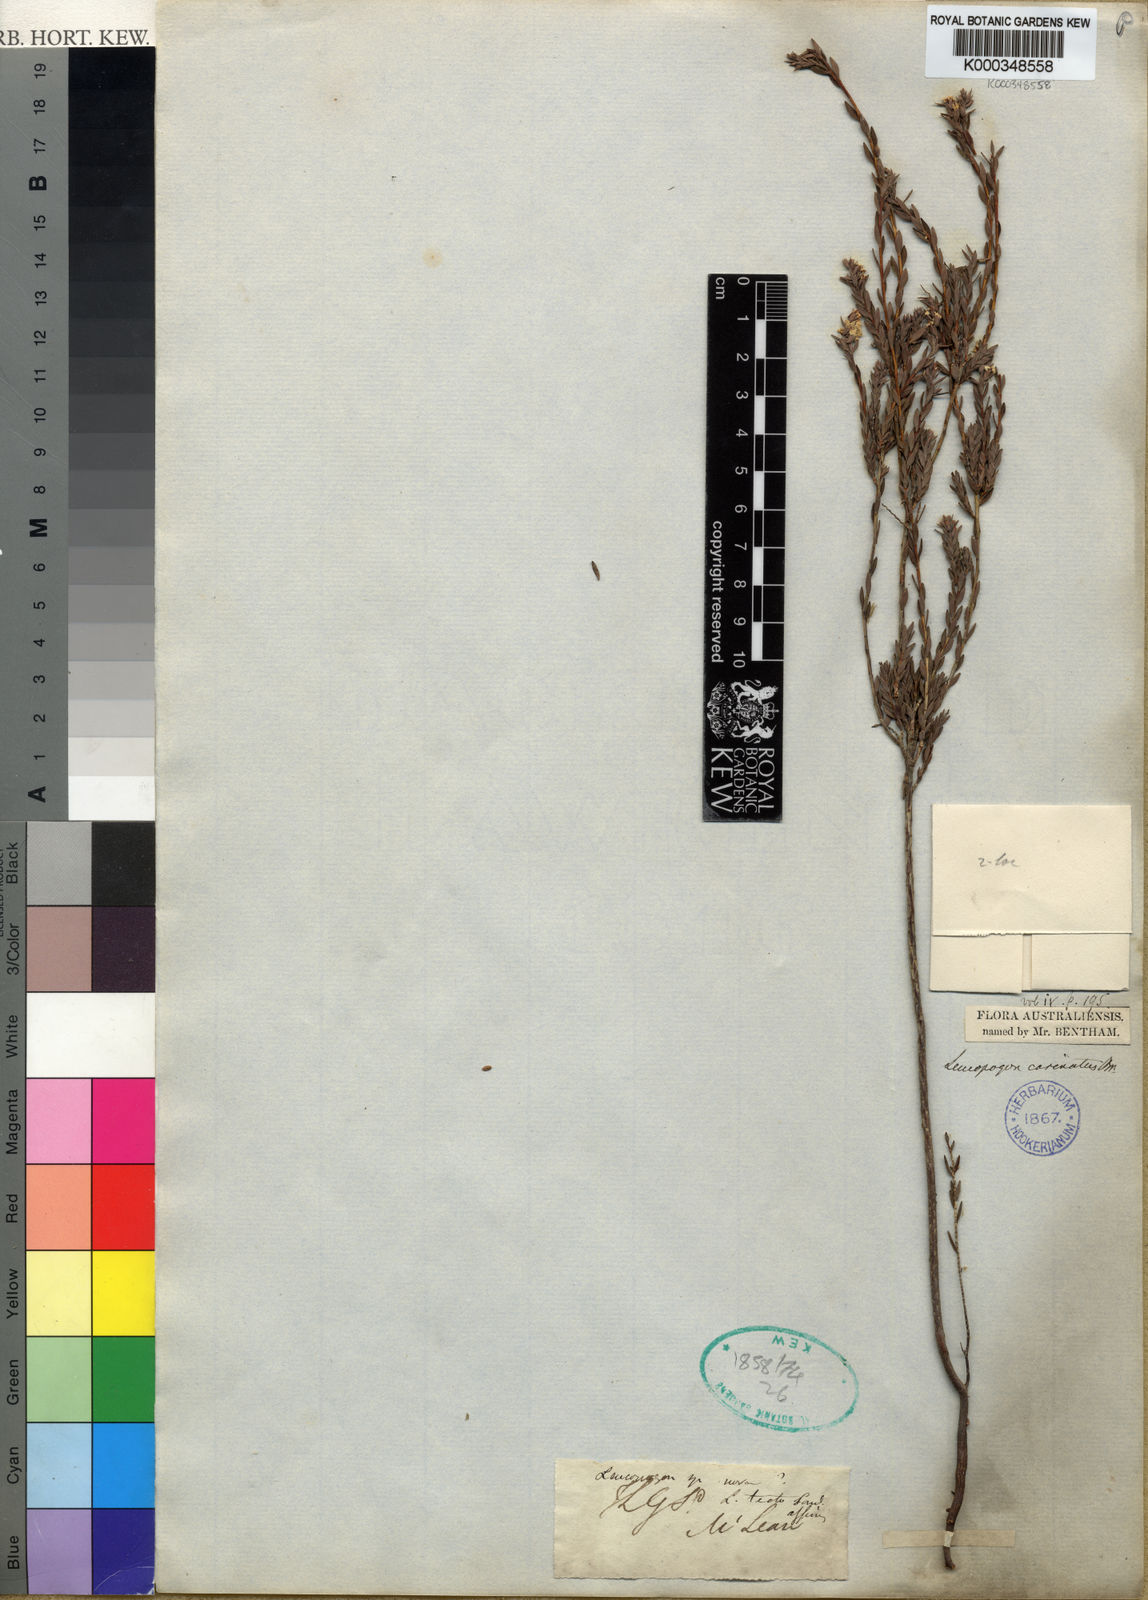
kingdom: Plantae
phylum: Tracheophyta
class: Magnoliopsida
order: Ericales
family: Ericaceae
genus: Leucopogon
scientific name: Leucopogon carinatus
